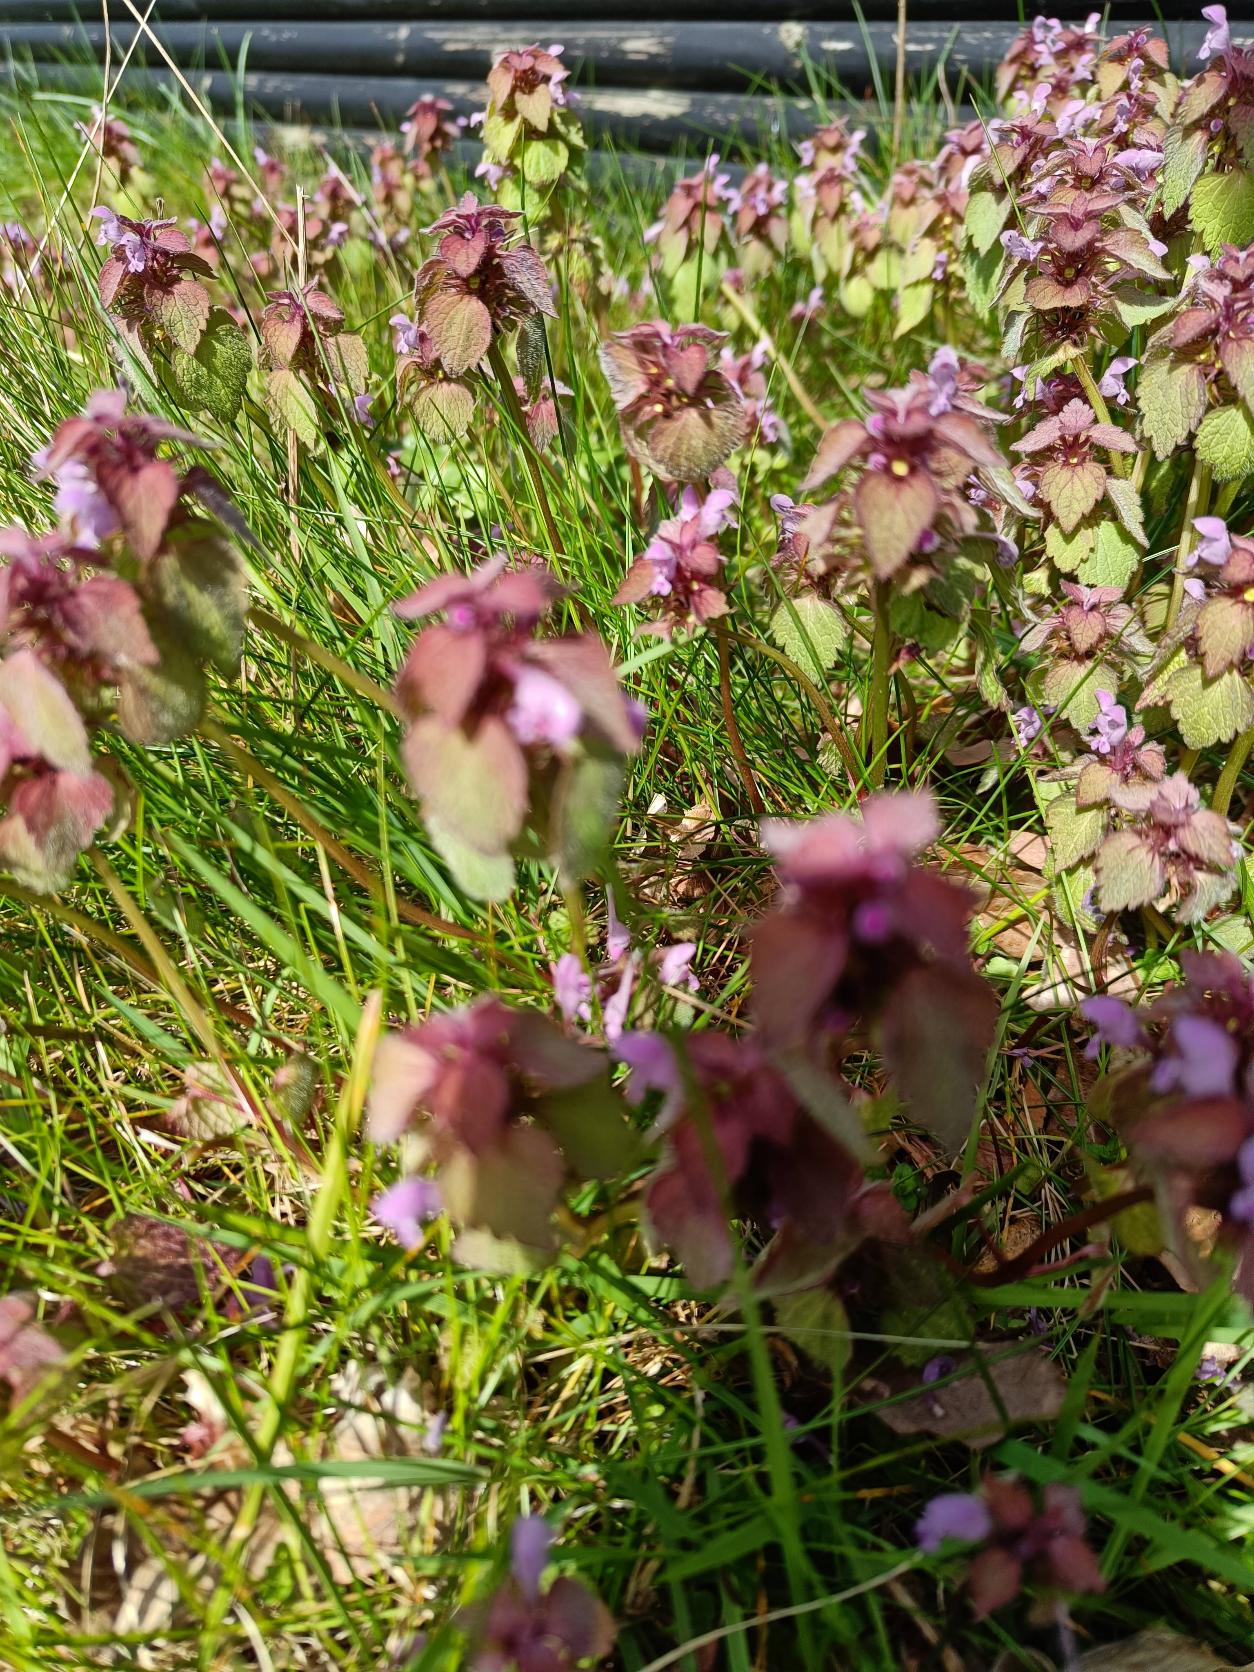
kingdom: Plantae
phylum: Tracheophyta
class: Magnoliopsida
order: Lamiales
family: Lamiaceae
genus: Lamium
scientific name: Lamium purpureum
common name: Rød tvetand
